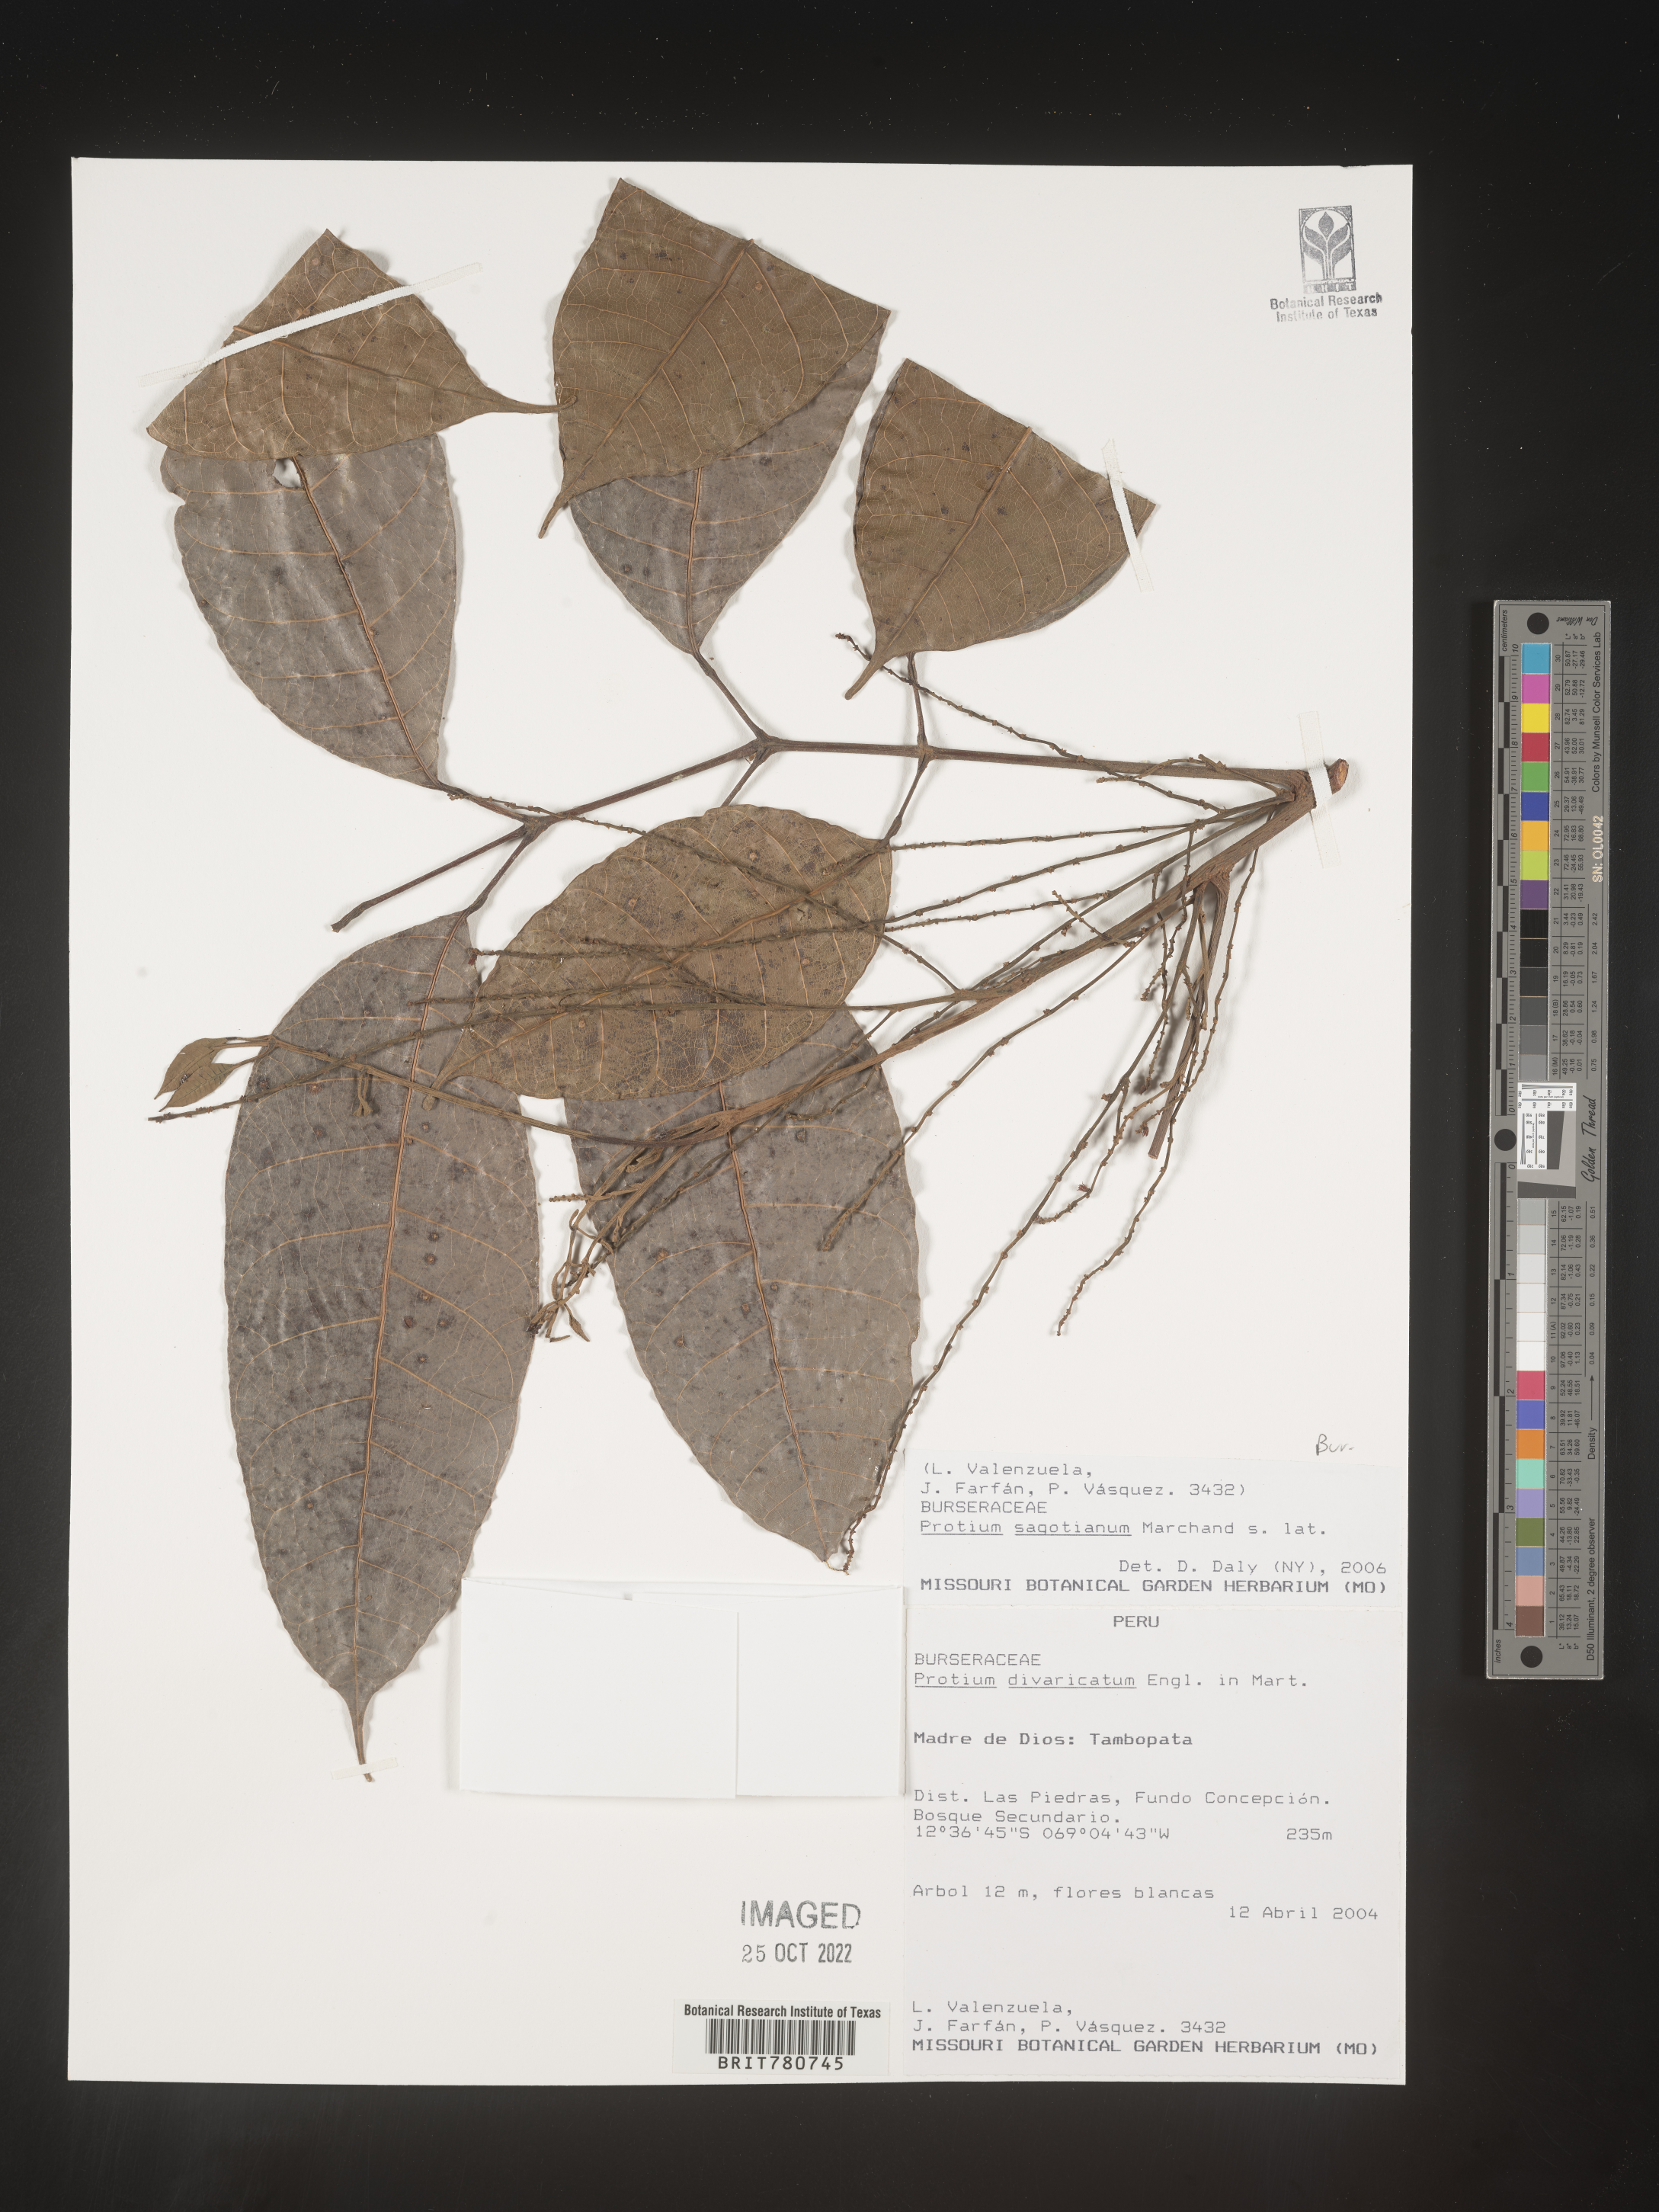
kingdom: Plantae
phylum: Tracheophyta
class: Magnoliopsida
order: Sapindales
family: Burseraceae
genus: Protium
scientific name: Protium
